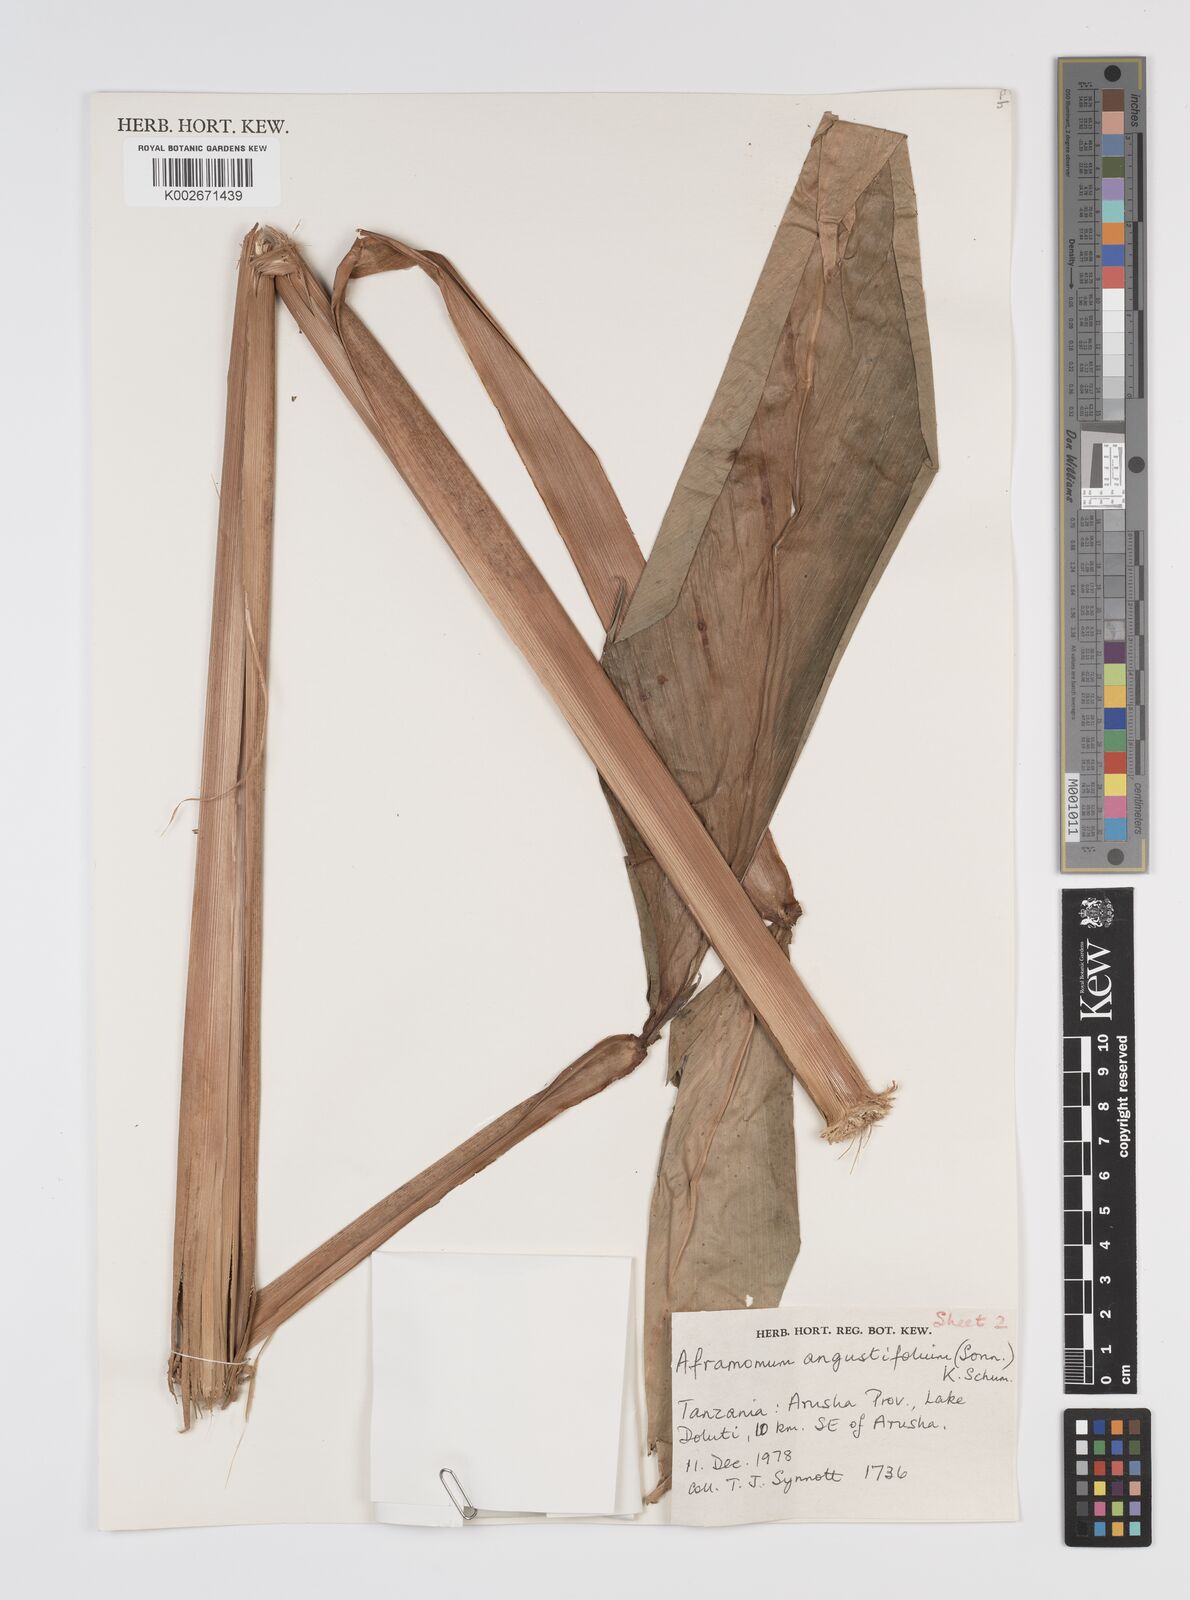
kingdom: Plantae
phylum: Tracheophyta
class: Liliopsida
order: Zingiberales
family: Zingiberaceae
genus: Aframomum
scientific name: Aframomum angustifolium
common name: Guinea grains
